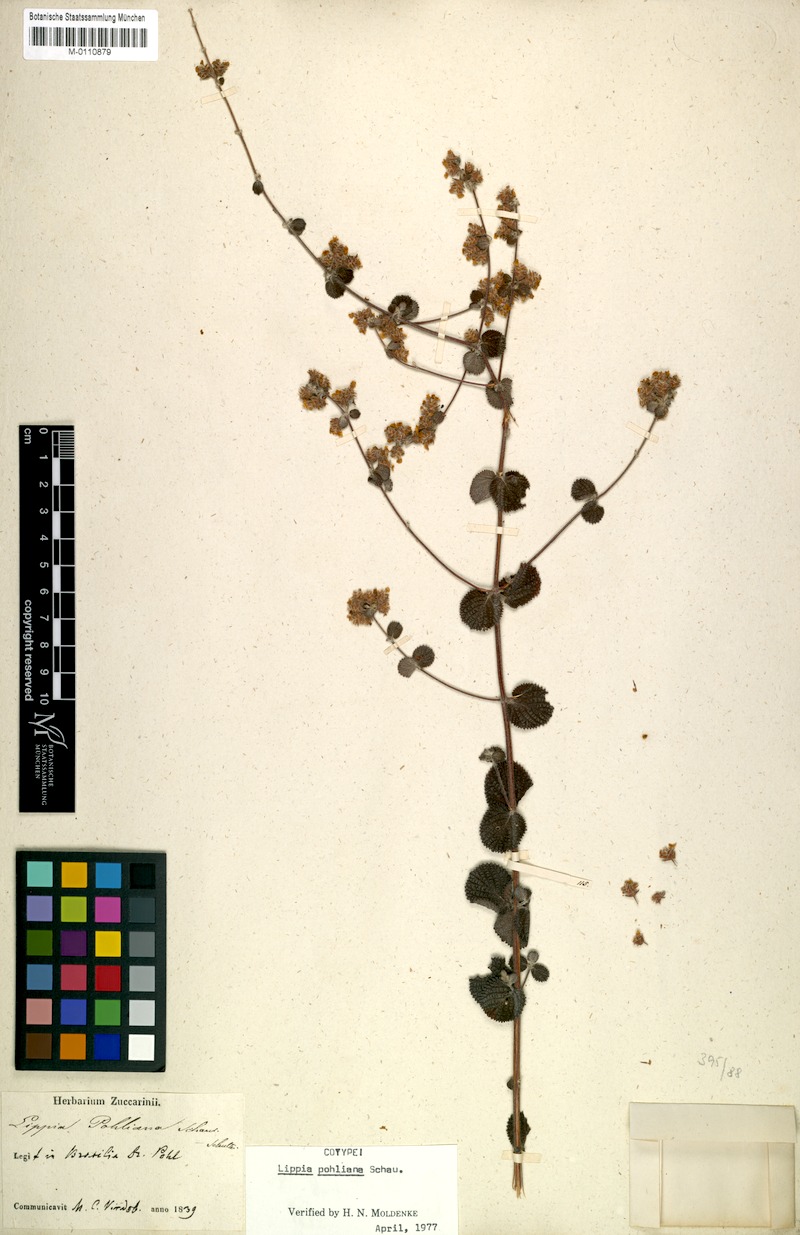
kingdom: Plantae
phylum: Tracheophyta
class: Magnoliopsida
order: Lamiales
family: Verbenaceae
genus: Lippia
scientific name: Lippia martiana
